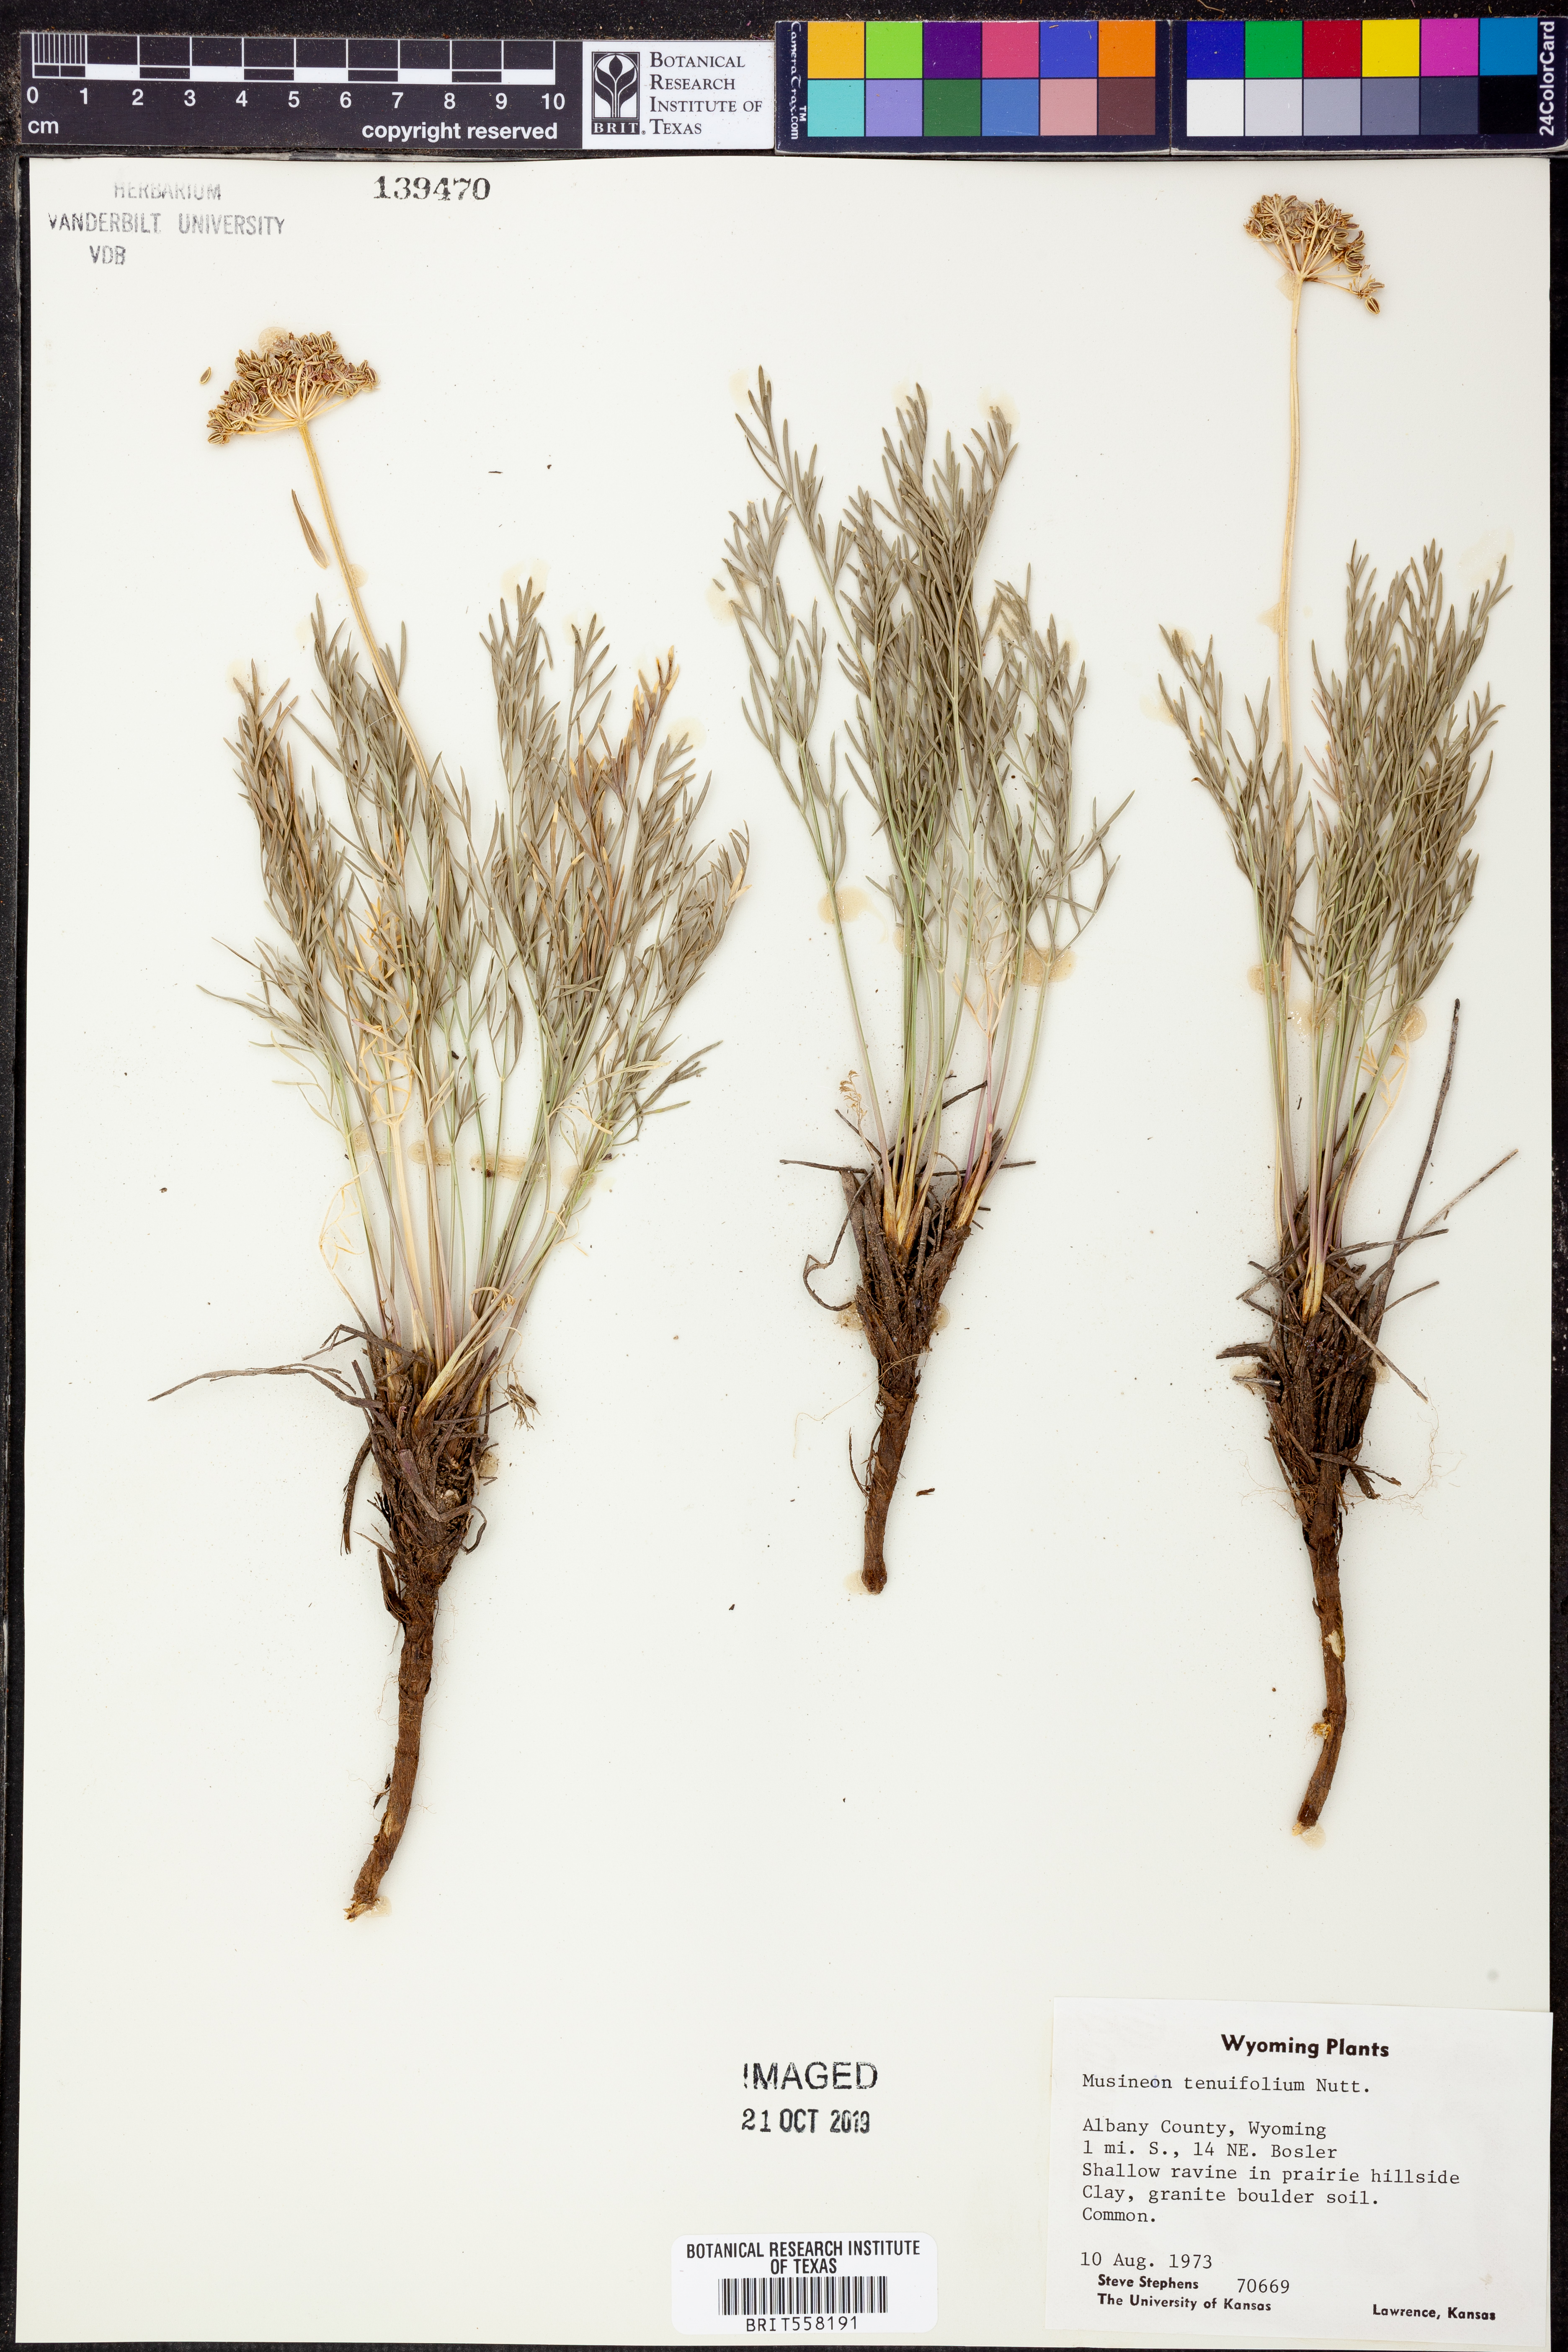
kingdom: Plantae
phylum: Tracheophyta
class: Magnoliopsida
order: Apiales
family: Apiaceae
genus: Musineon
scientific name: Musineon tenuifolium
